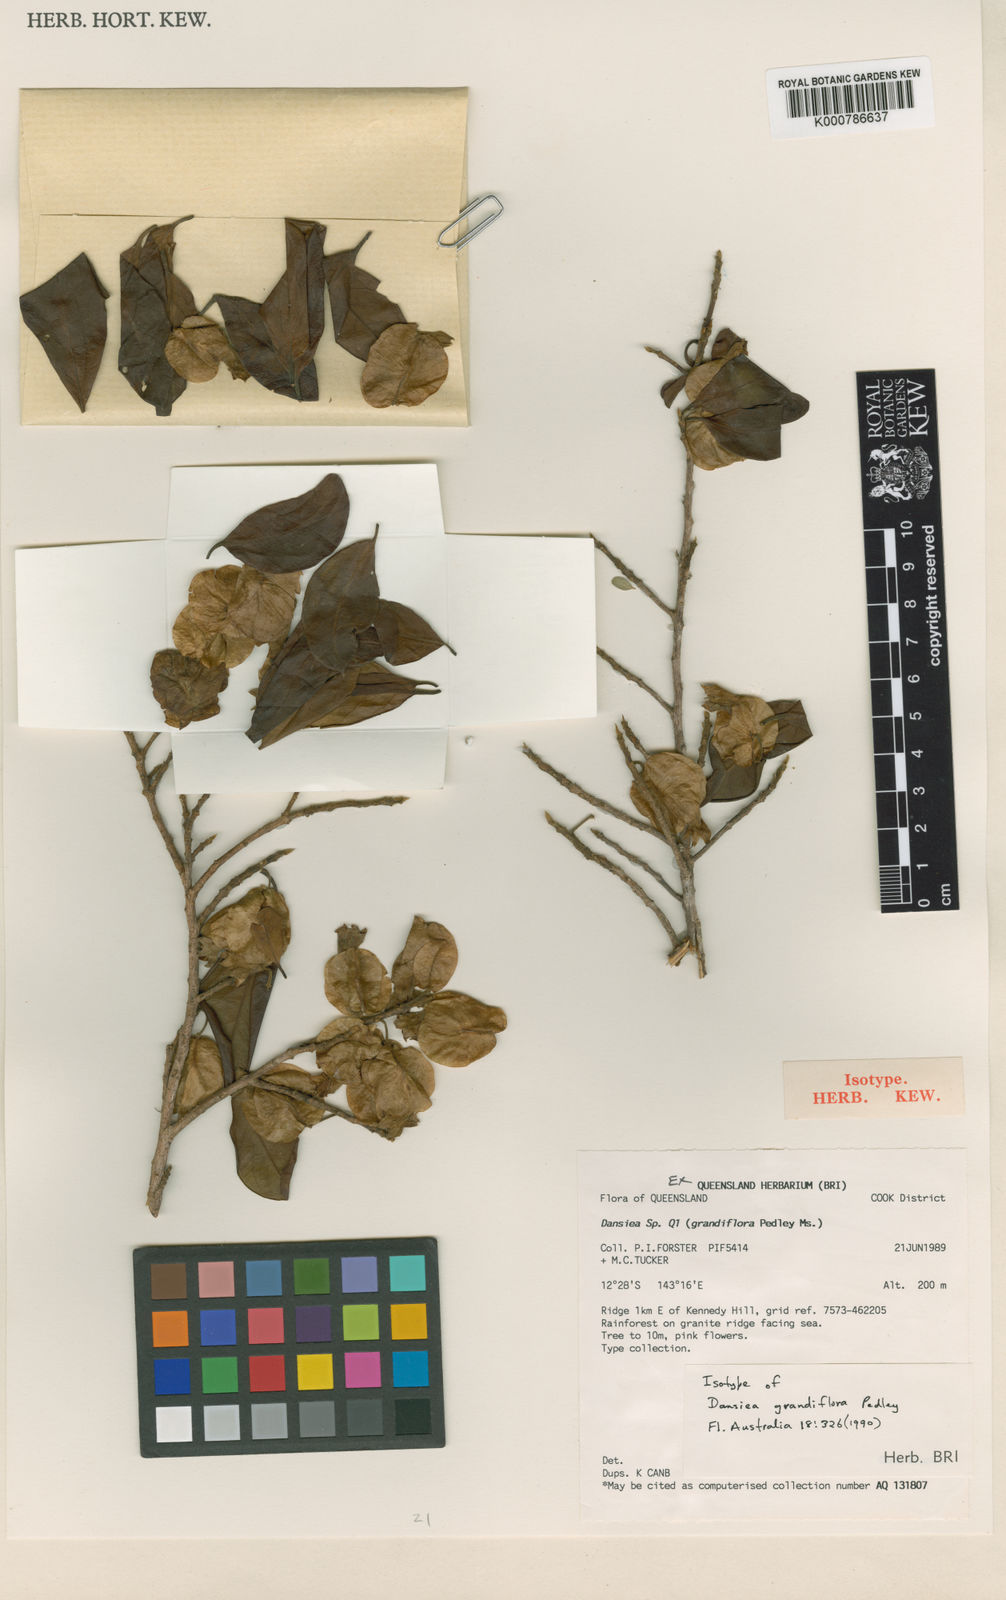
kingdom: Plantae
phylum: Tracheophyta
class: Magnoliopsida
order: Myrtales
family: Combretaceae
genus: Dansiea
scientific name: Dansiea grandiflora
